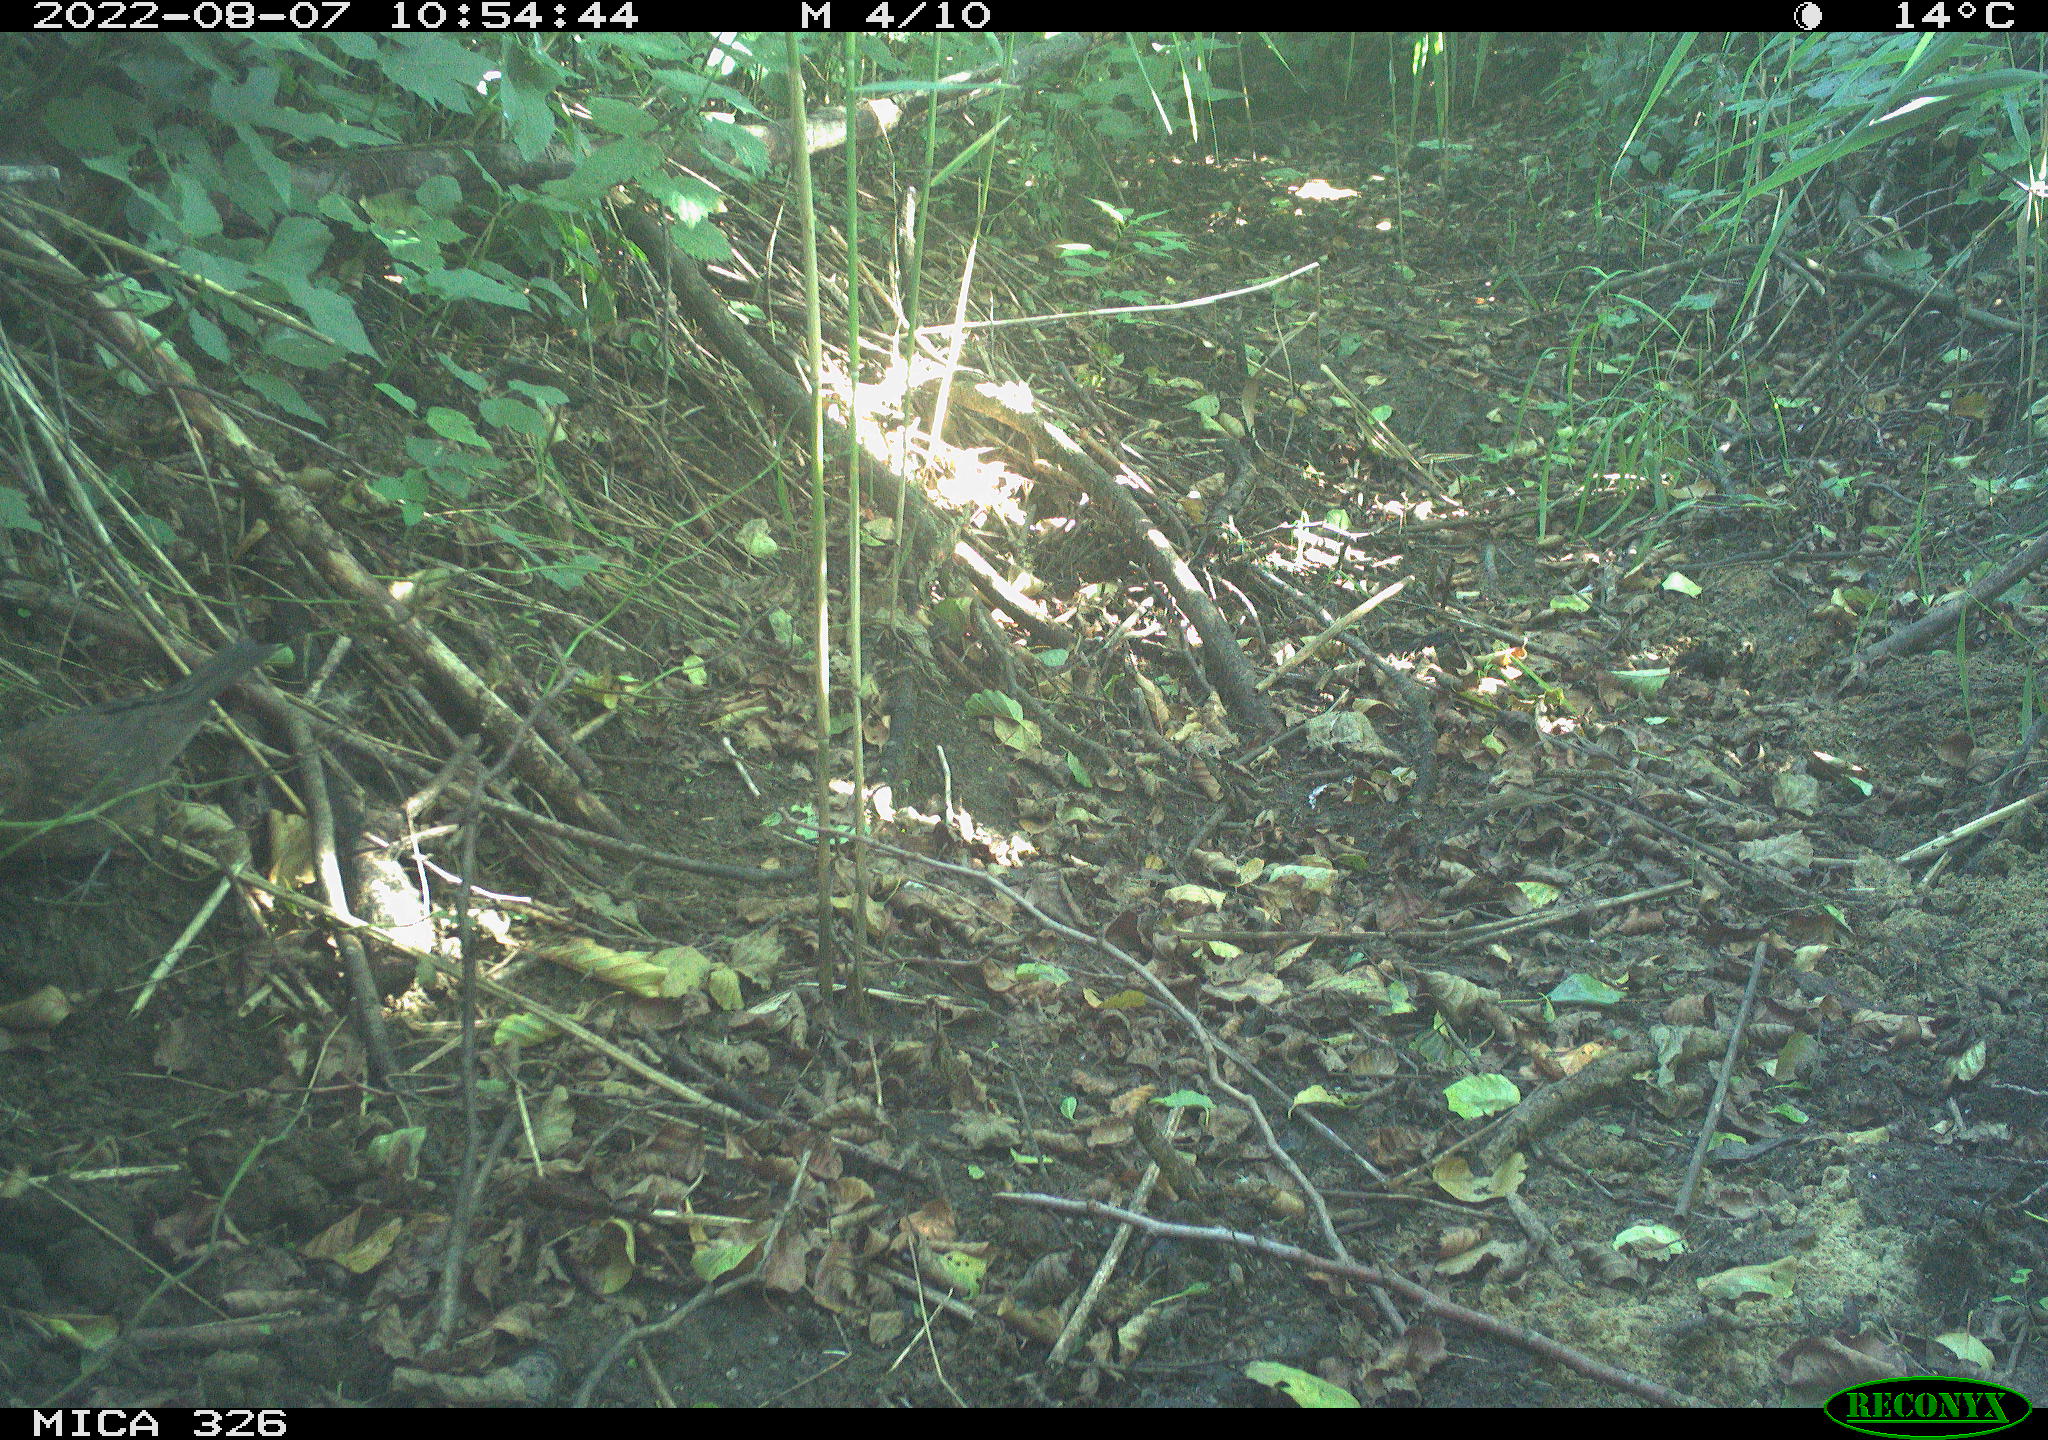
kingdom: Animalia
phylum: Chordata
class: Aves
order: Passeriformes
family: Turdidae
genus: Turdus
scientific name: Turdus philomelos
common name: Song thrush
